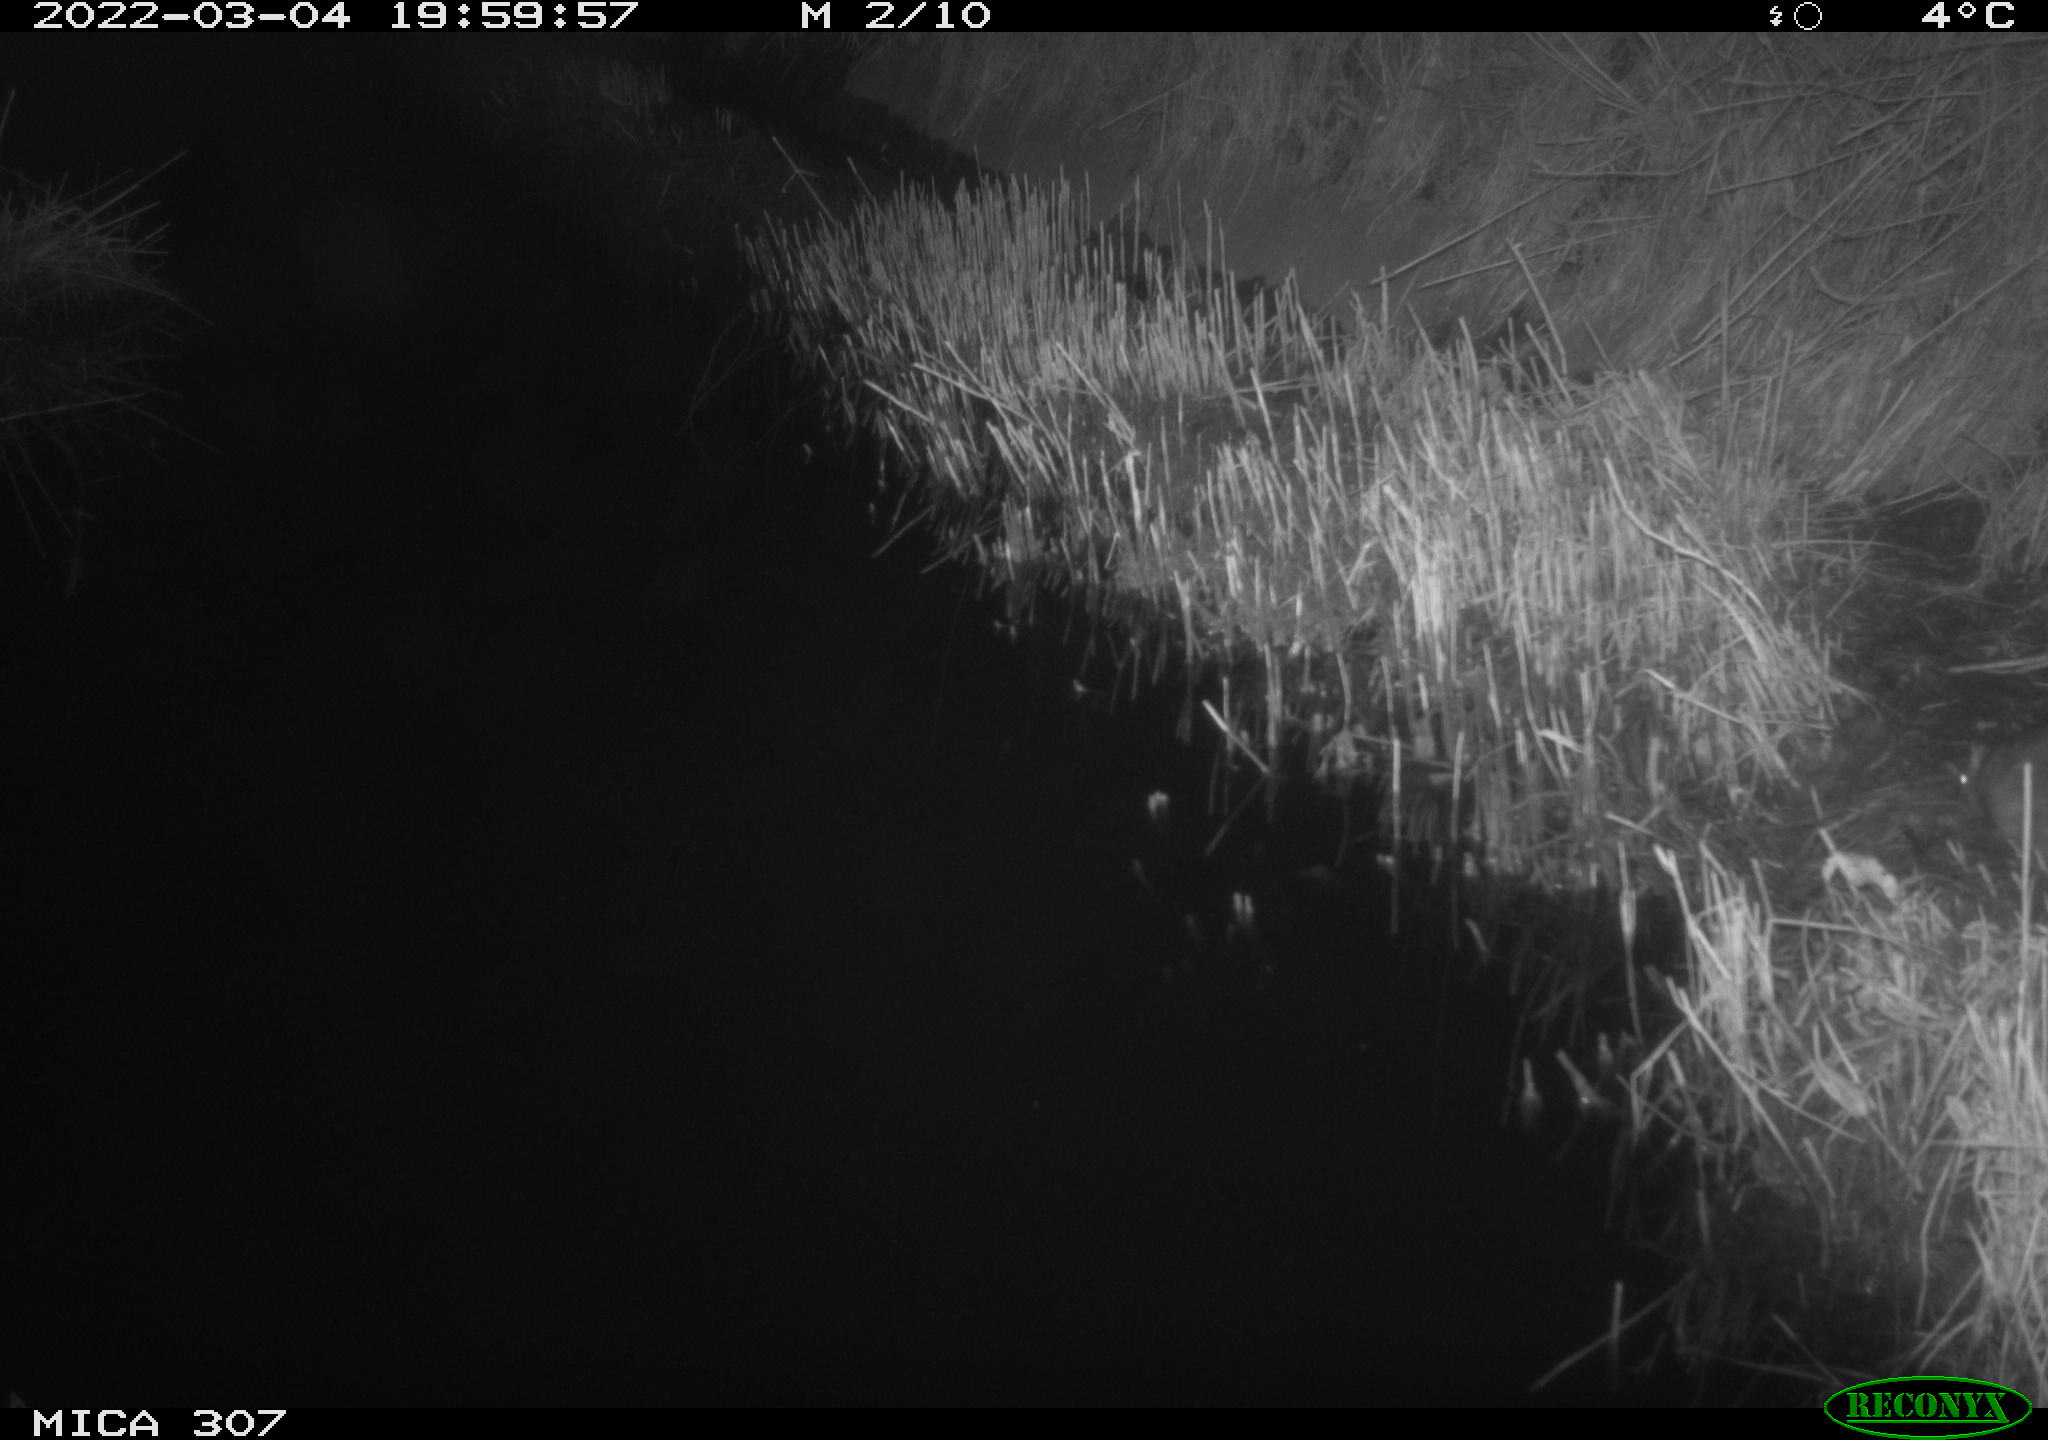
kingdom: Animalia
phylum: Chordata
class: Mammalia
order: Rodentia
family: Muridae
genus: Rattus
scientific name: Rattus norvegicus
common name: Brown rat
